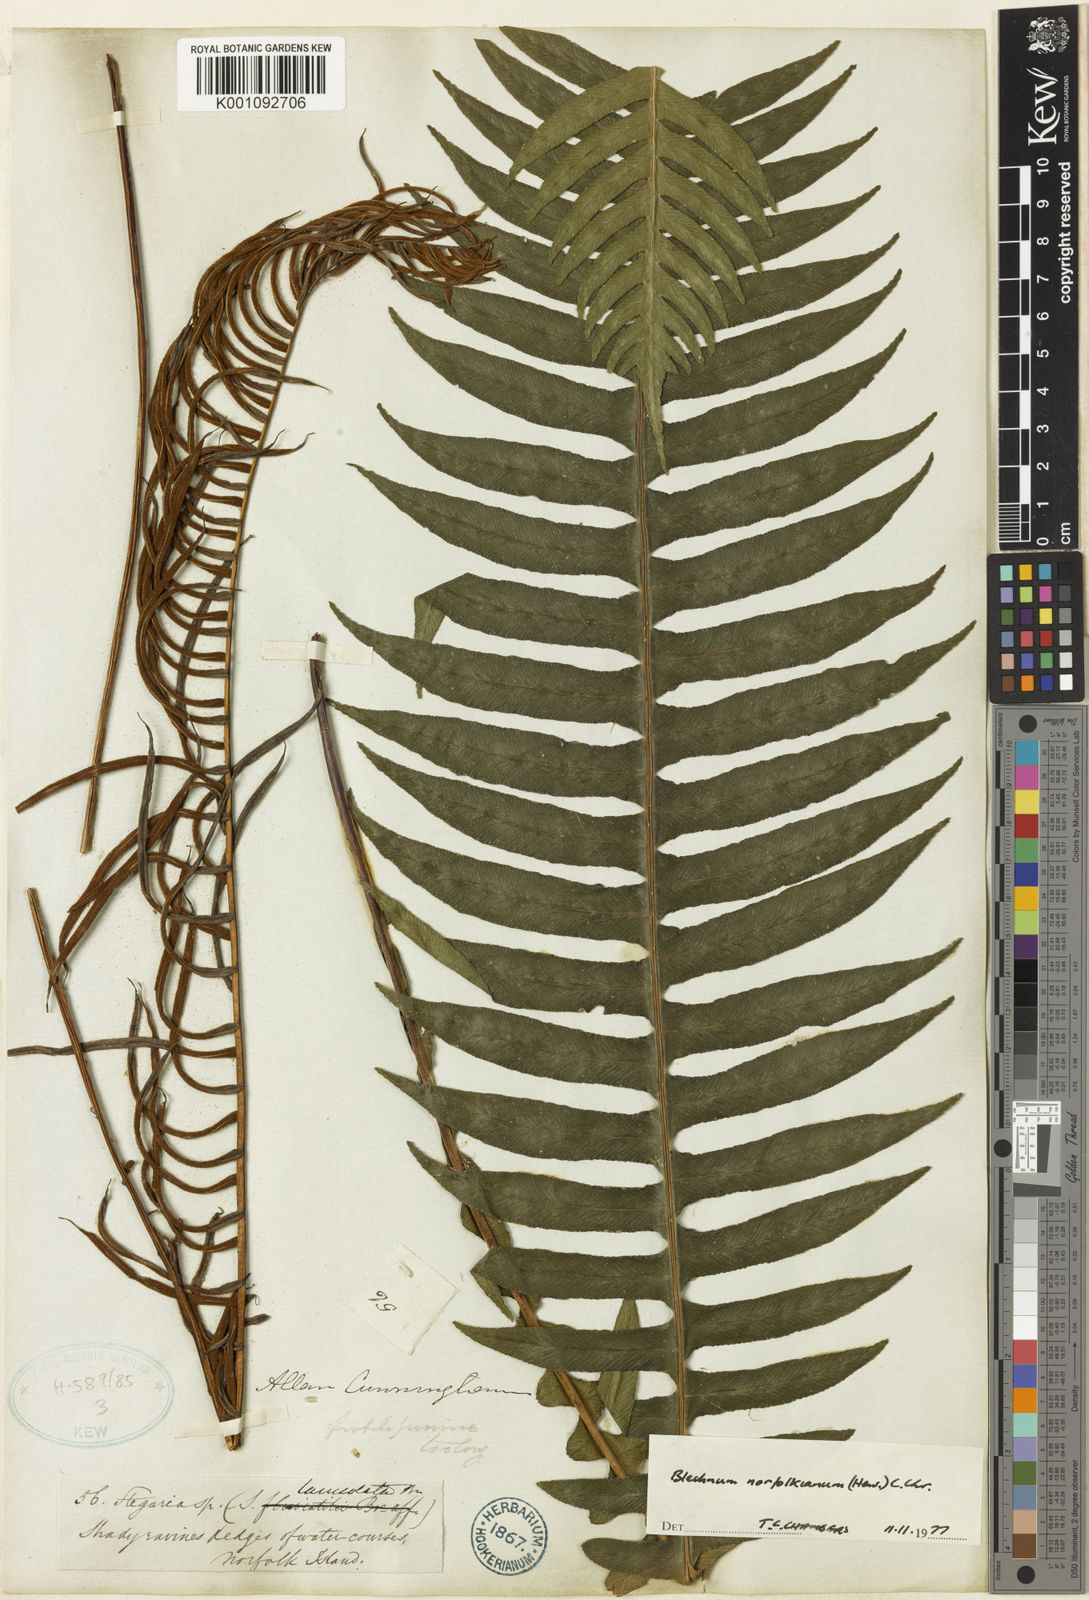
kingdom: Plantae
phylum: Tracheophyta
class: Polypodiopsida
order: Polypodiales
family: Blechnaceae
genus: Austroblechnum
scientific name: Austroblechnum norfolkianum
